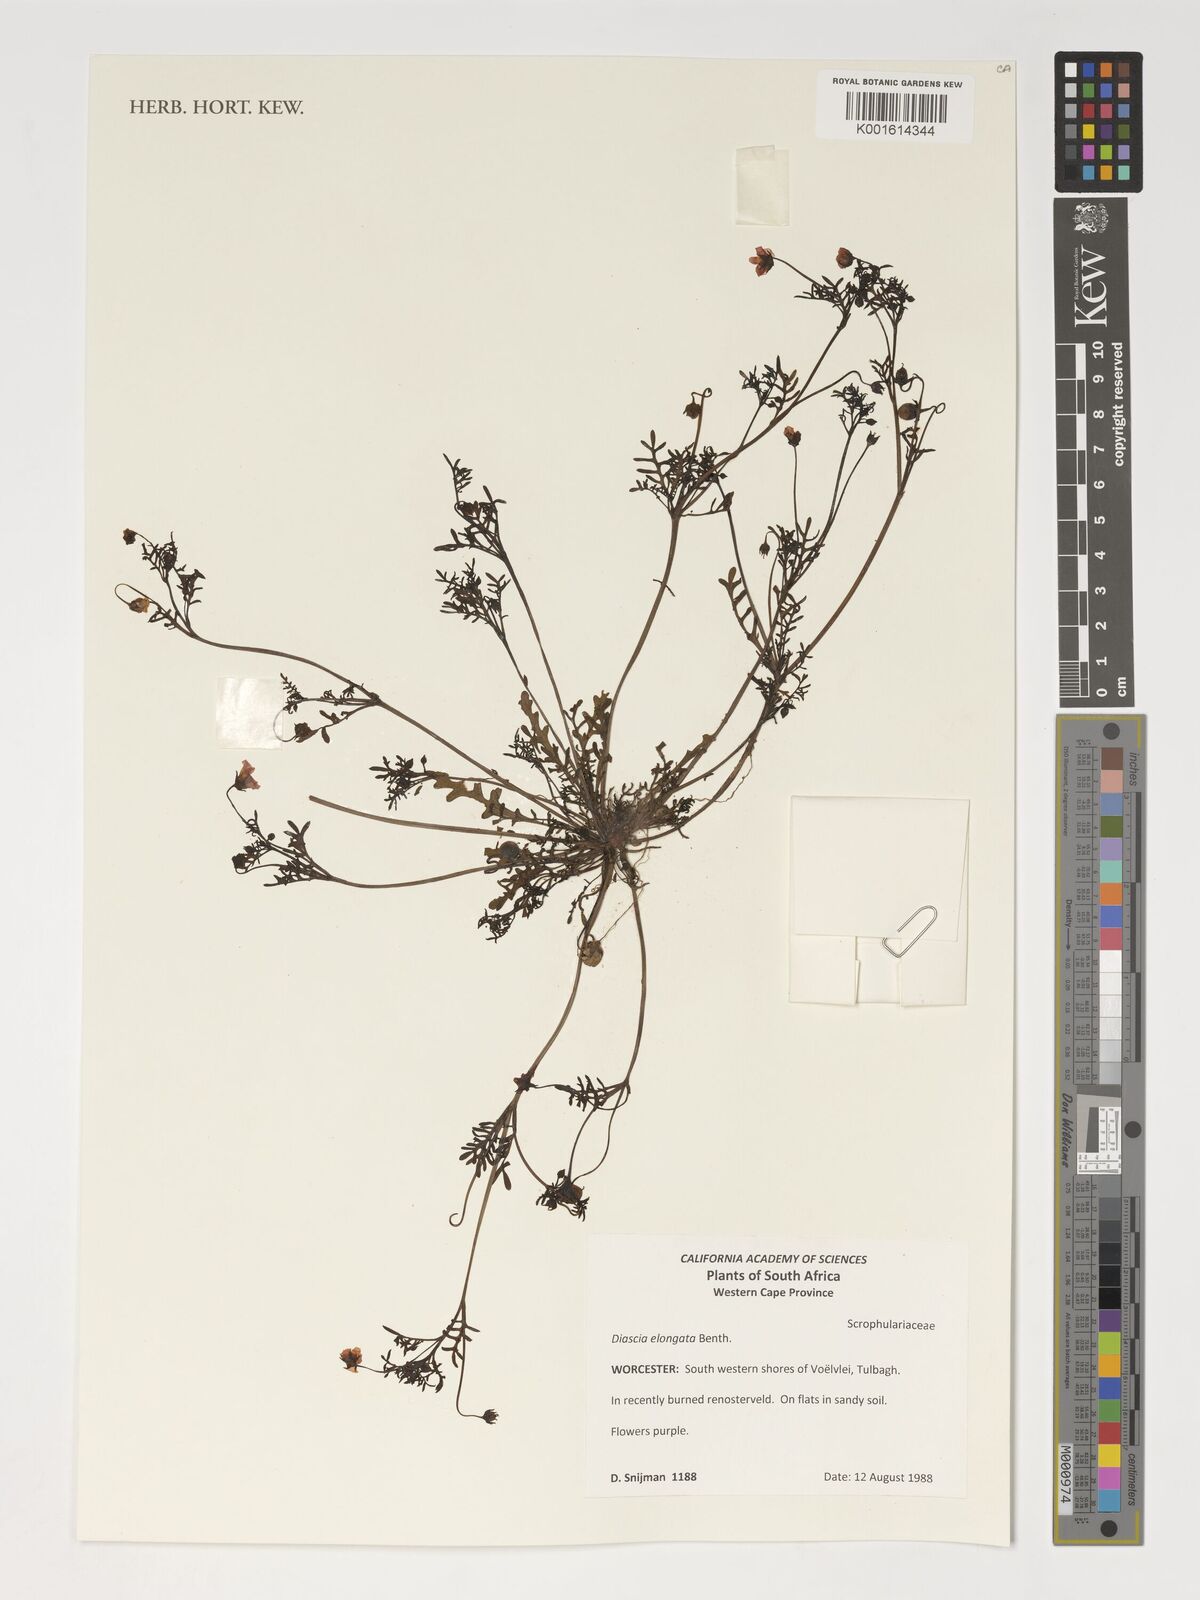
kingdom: Plantae
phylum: Tracheophyta
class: Magnoliopsida
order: Lamiales
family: Scrophulariaceae
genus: Diascia
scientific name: Diascia elongata
